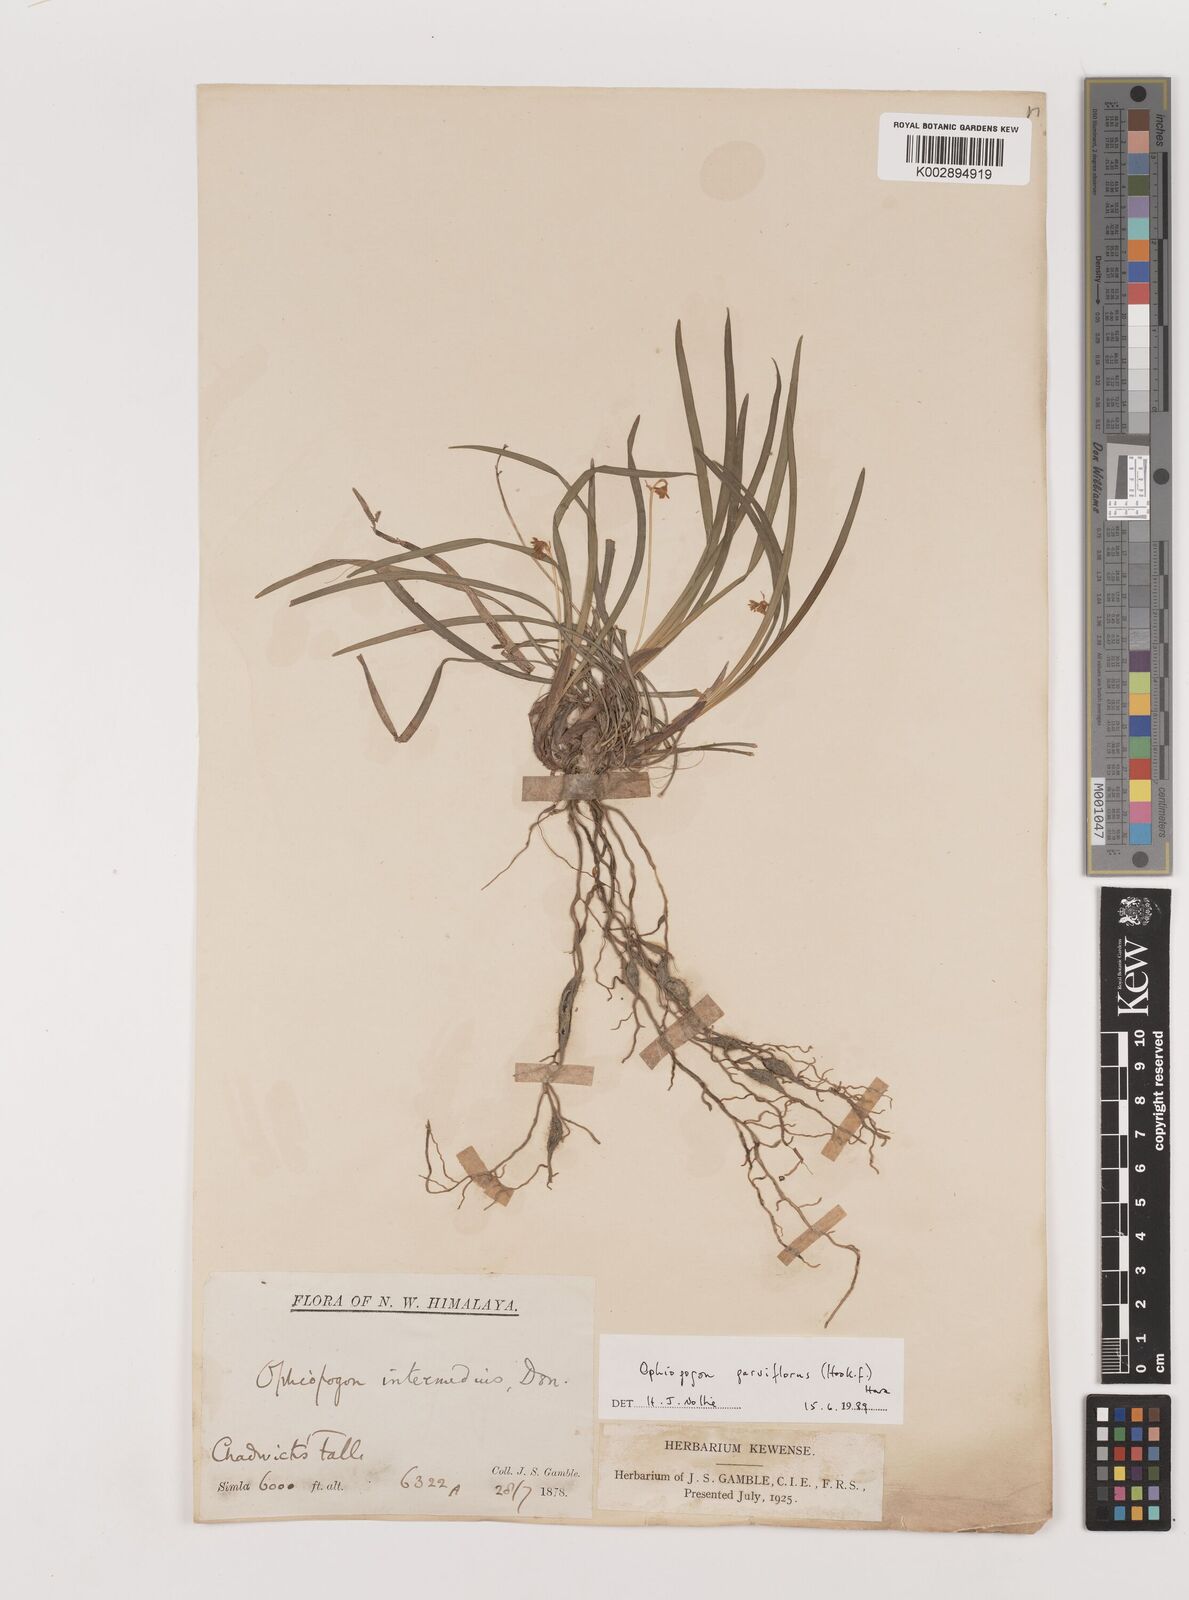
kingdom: Plantae
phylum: Tracheophyta
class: Liliopsida
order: Asparagales
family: Asparagaceae
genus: Ophiopogon
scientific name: Ophiopogon intermedius
